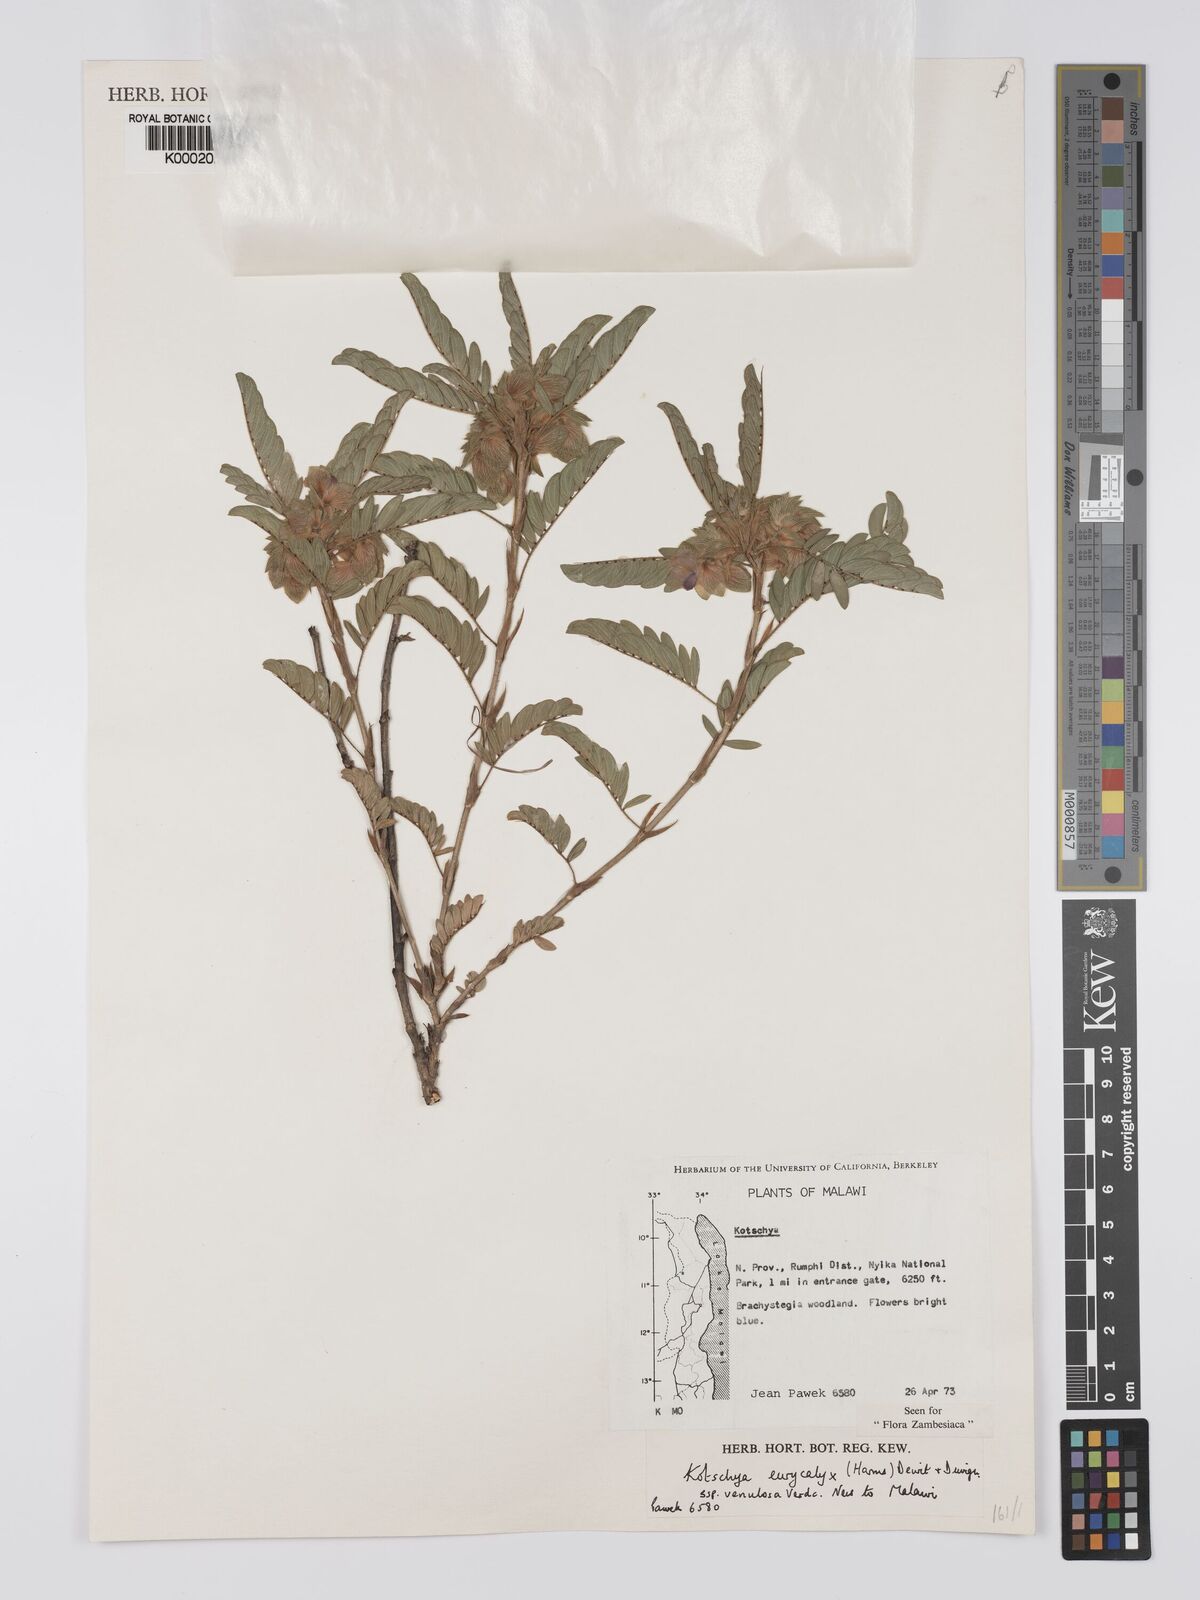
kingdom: Plantae
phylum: Tracheophyta
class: Magnoliopsida
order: Fabales
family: Fabaceae
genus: Kotschya
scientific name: Kotschya eurycalyx
